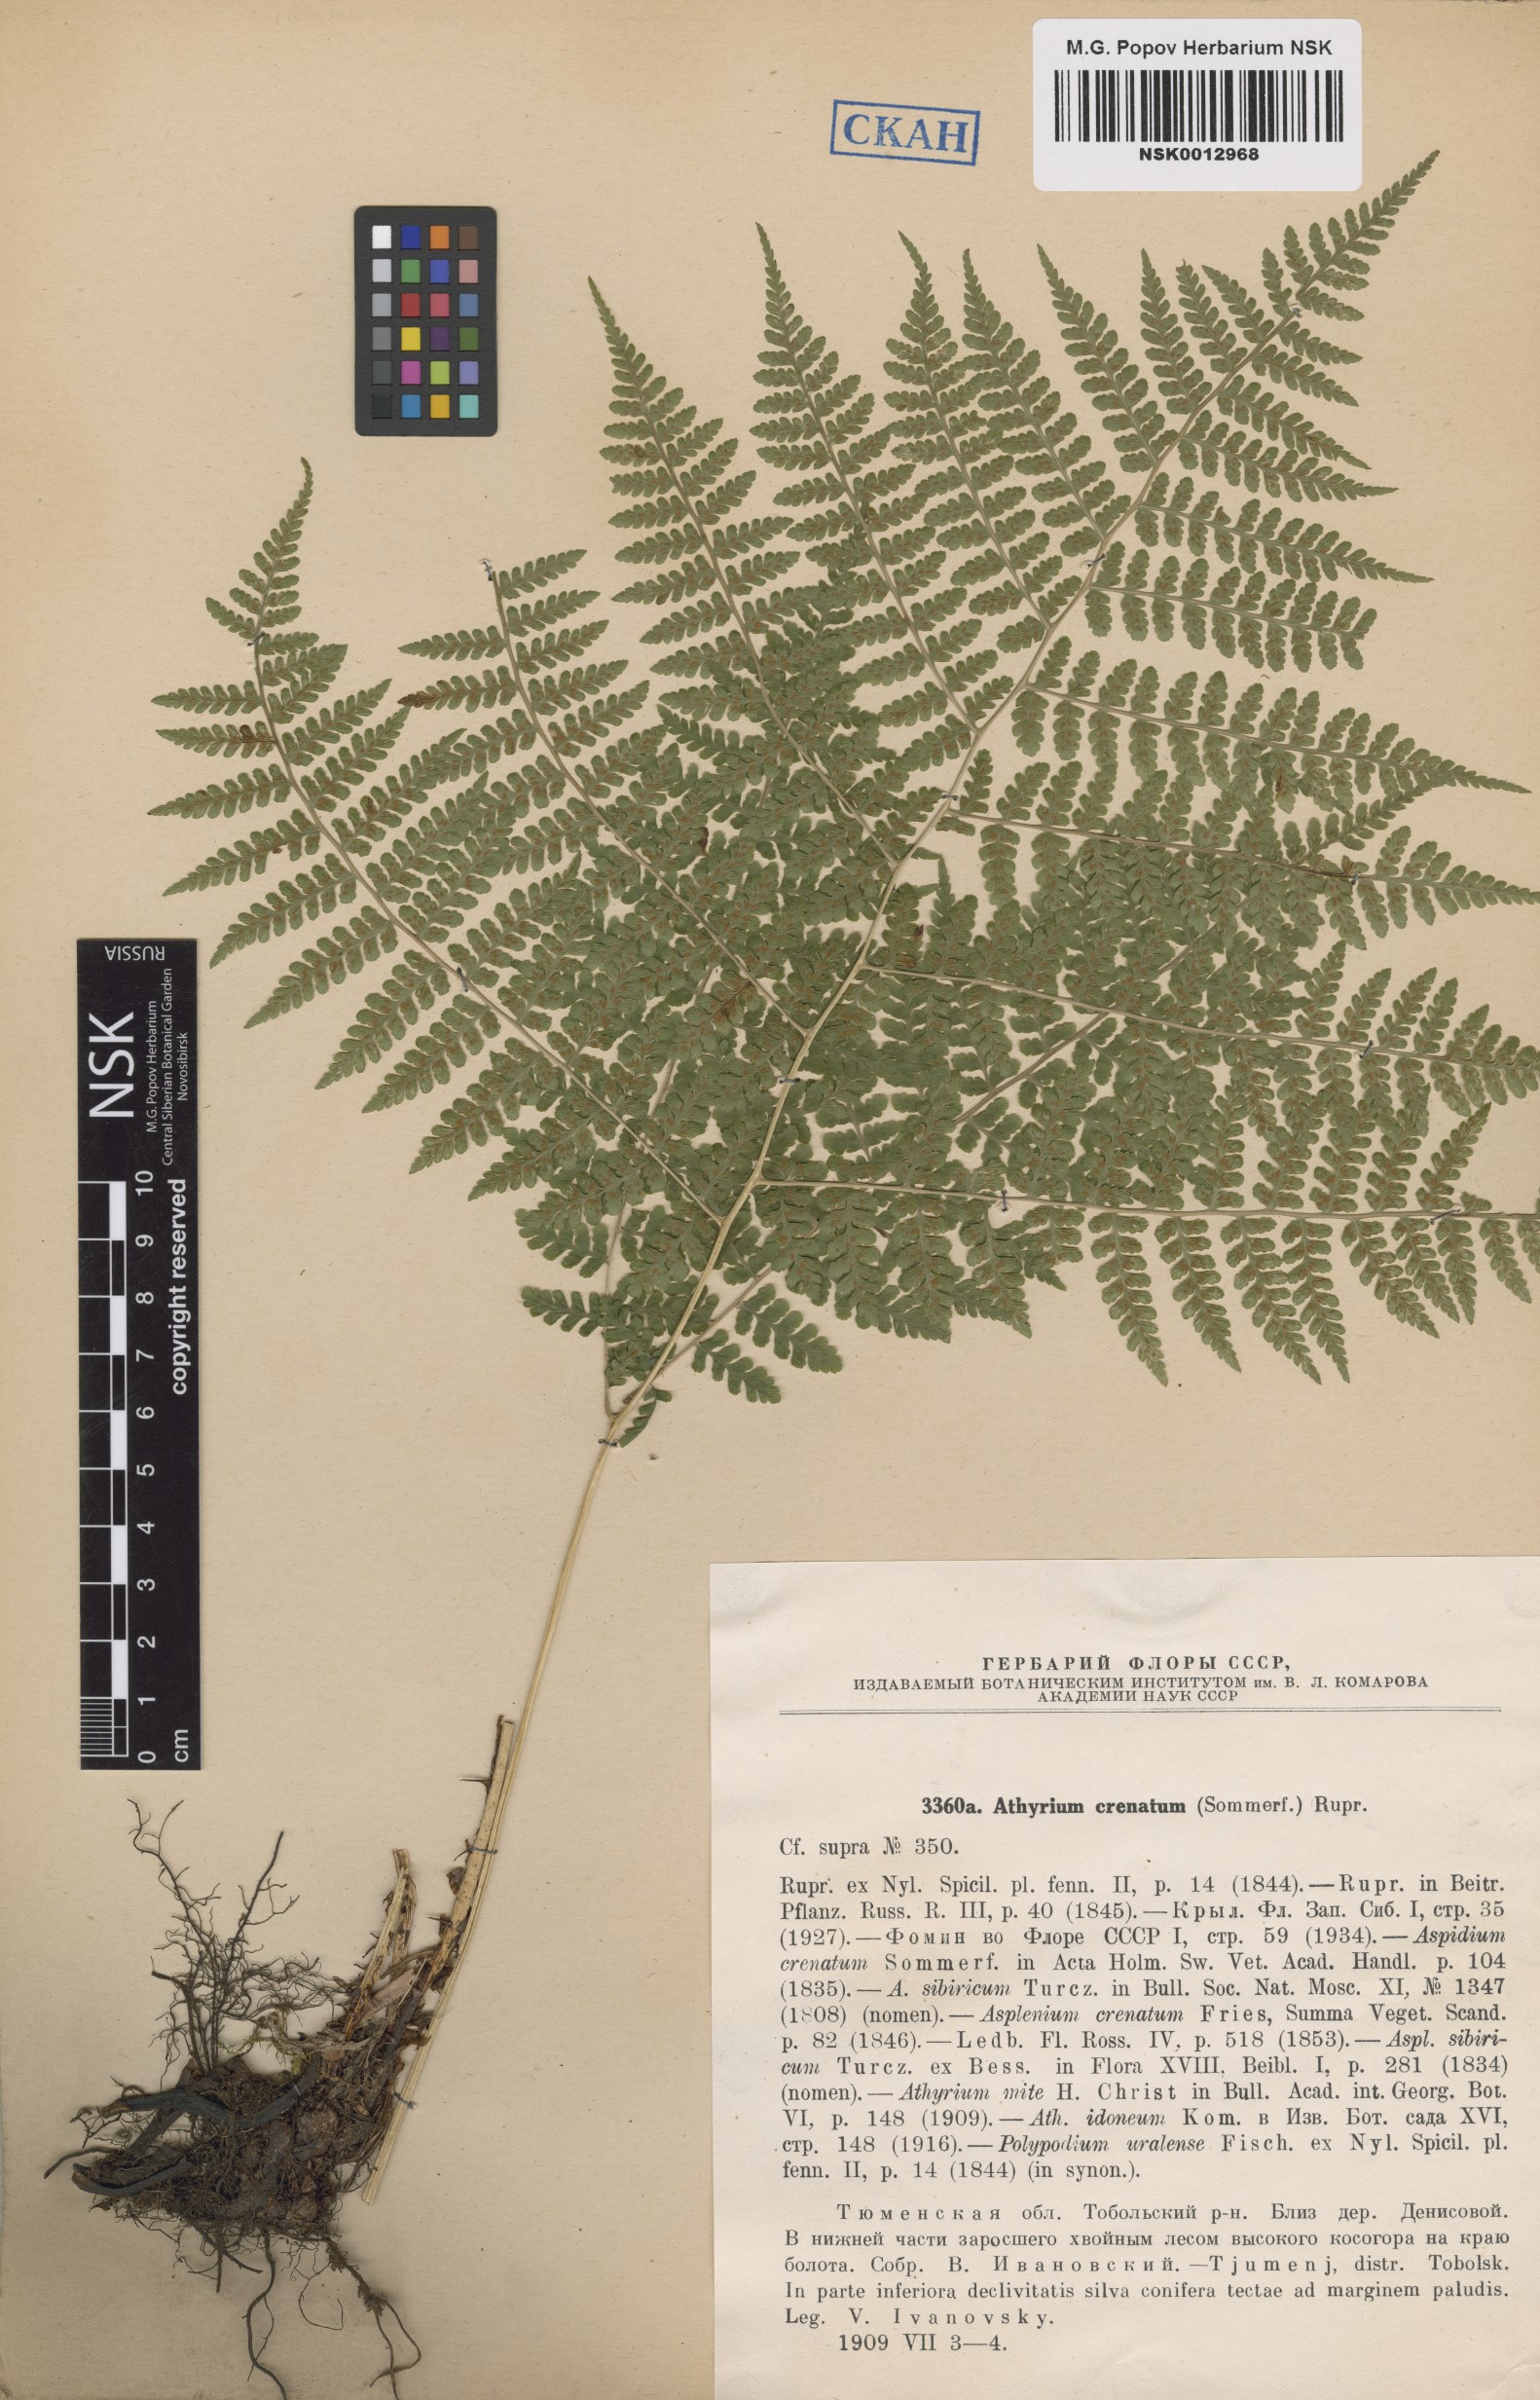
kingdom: Plantae
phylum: Tracheophyta
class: Polypodiopsida
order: Polypodiales
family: Athyriaceae
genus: Diplazium
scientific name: Diplazium sibiricum
